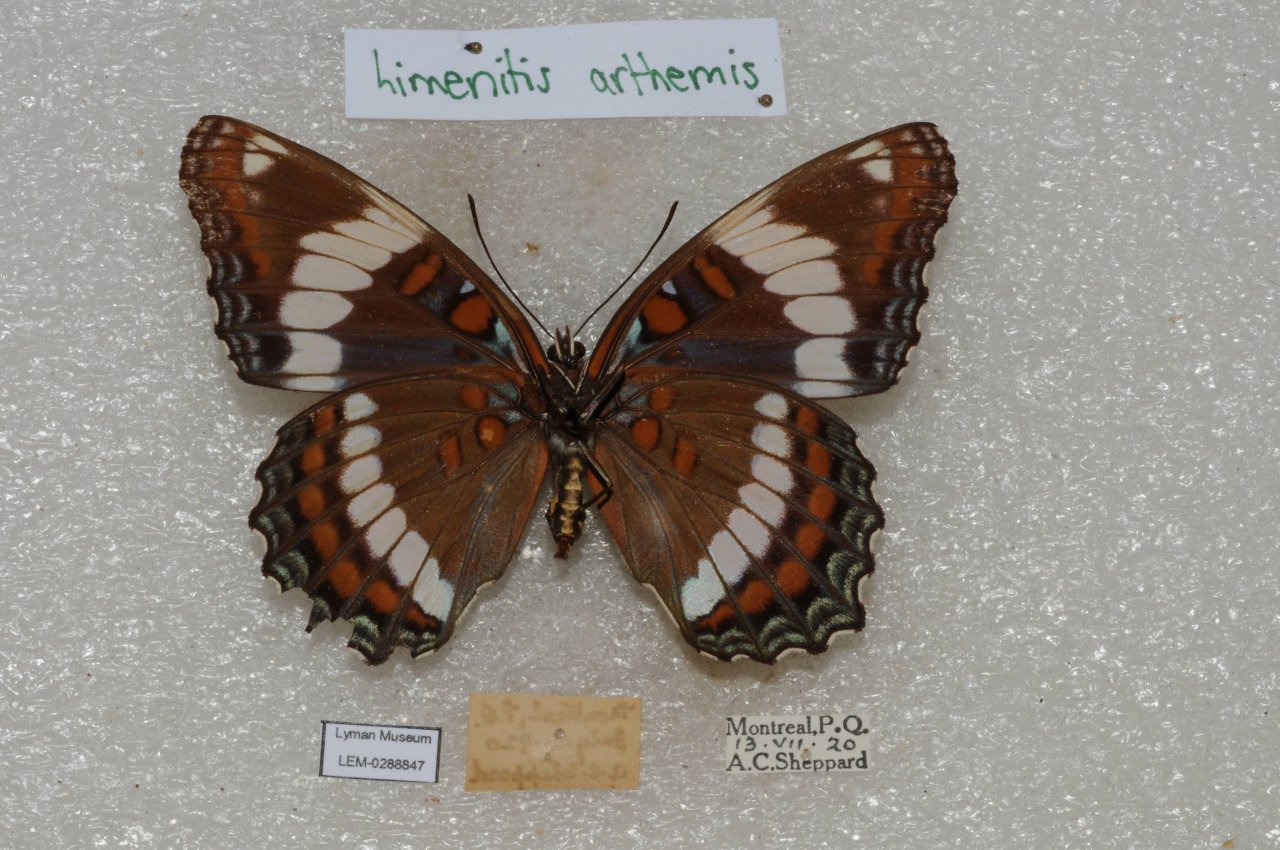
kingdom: Animalia
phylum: Arthropoda
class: Insecta
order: Lepidoptera
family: Nymphalidae
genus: Limenitis
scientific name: Limenitis arthemis
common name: Red-spotted Admiral
